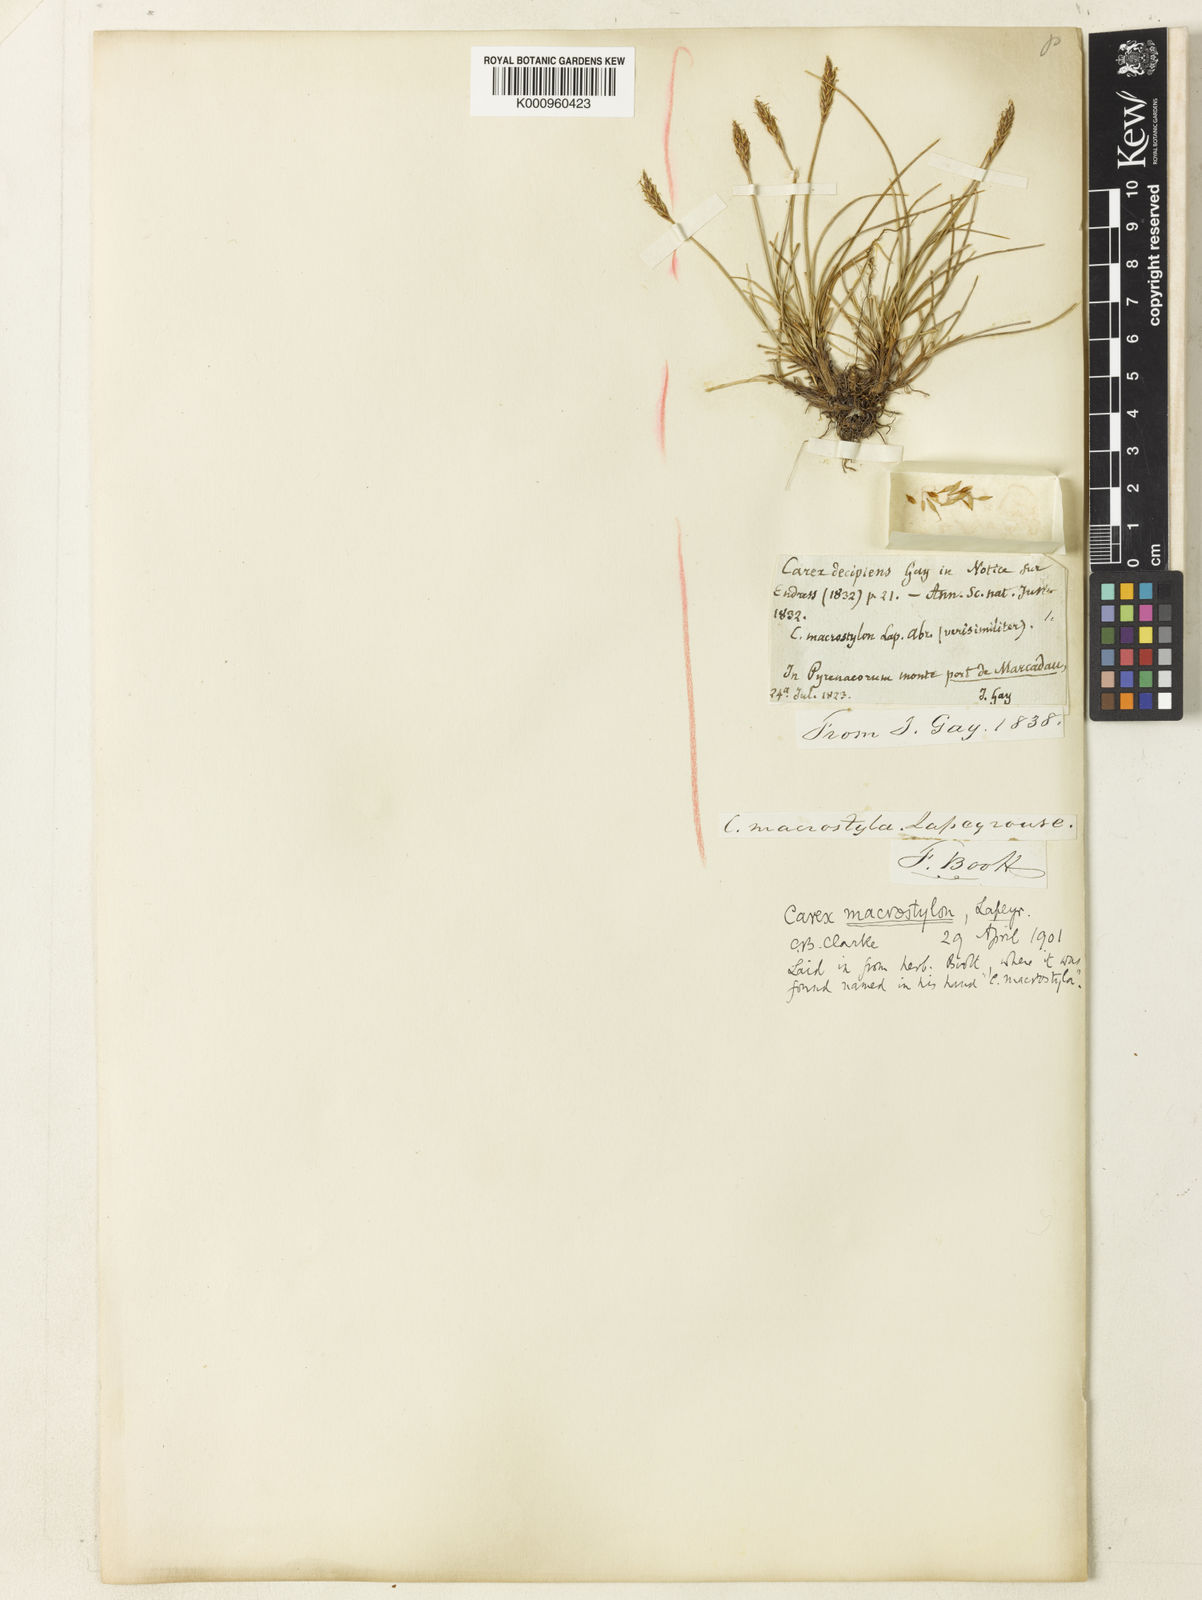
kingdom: Plantae
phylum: Tracheophyta
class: Liliopsida
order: Poales
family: Cyperaceae
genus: Carex
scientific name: Carex
